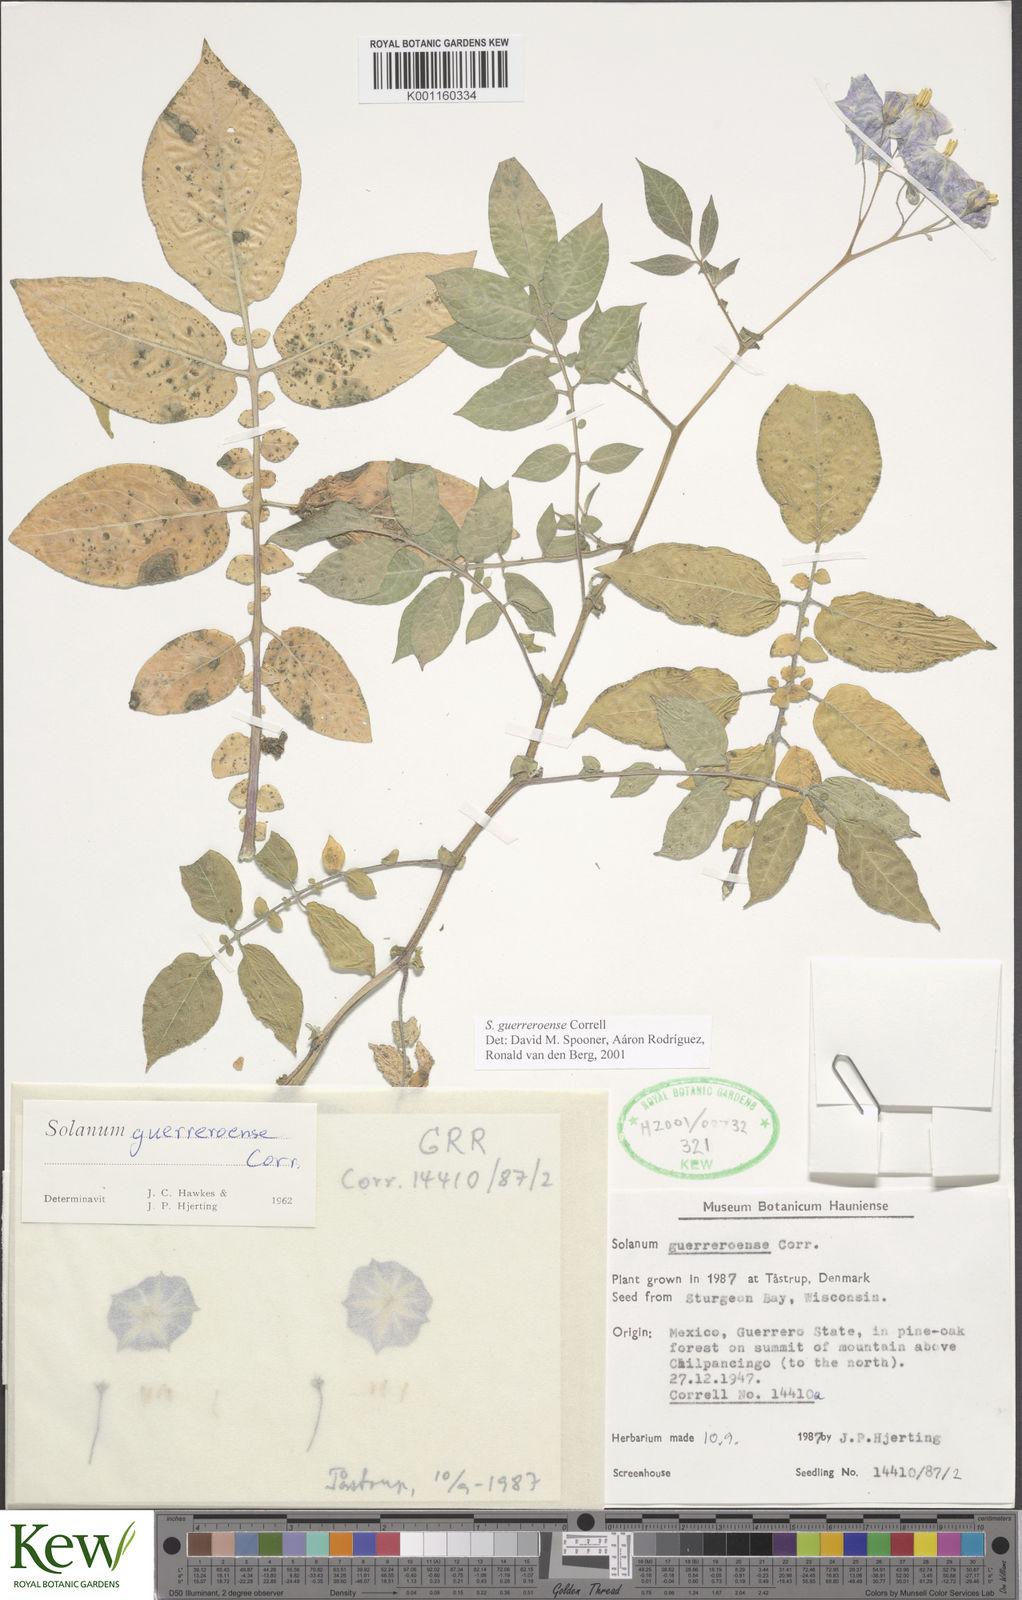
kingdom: Plantae
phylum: Tracheophyta
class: Magnoliopsida
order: Solanales
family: Solanaceae
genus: Solanum
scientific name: Solanum guerreroense
